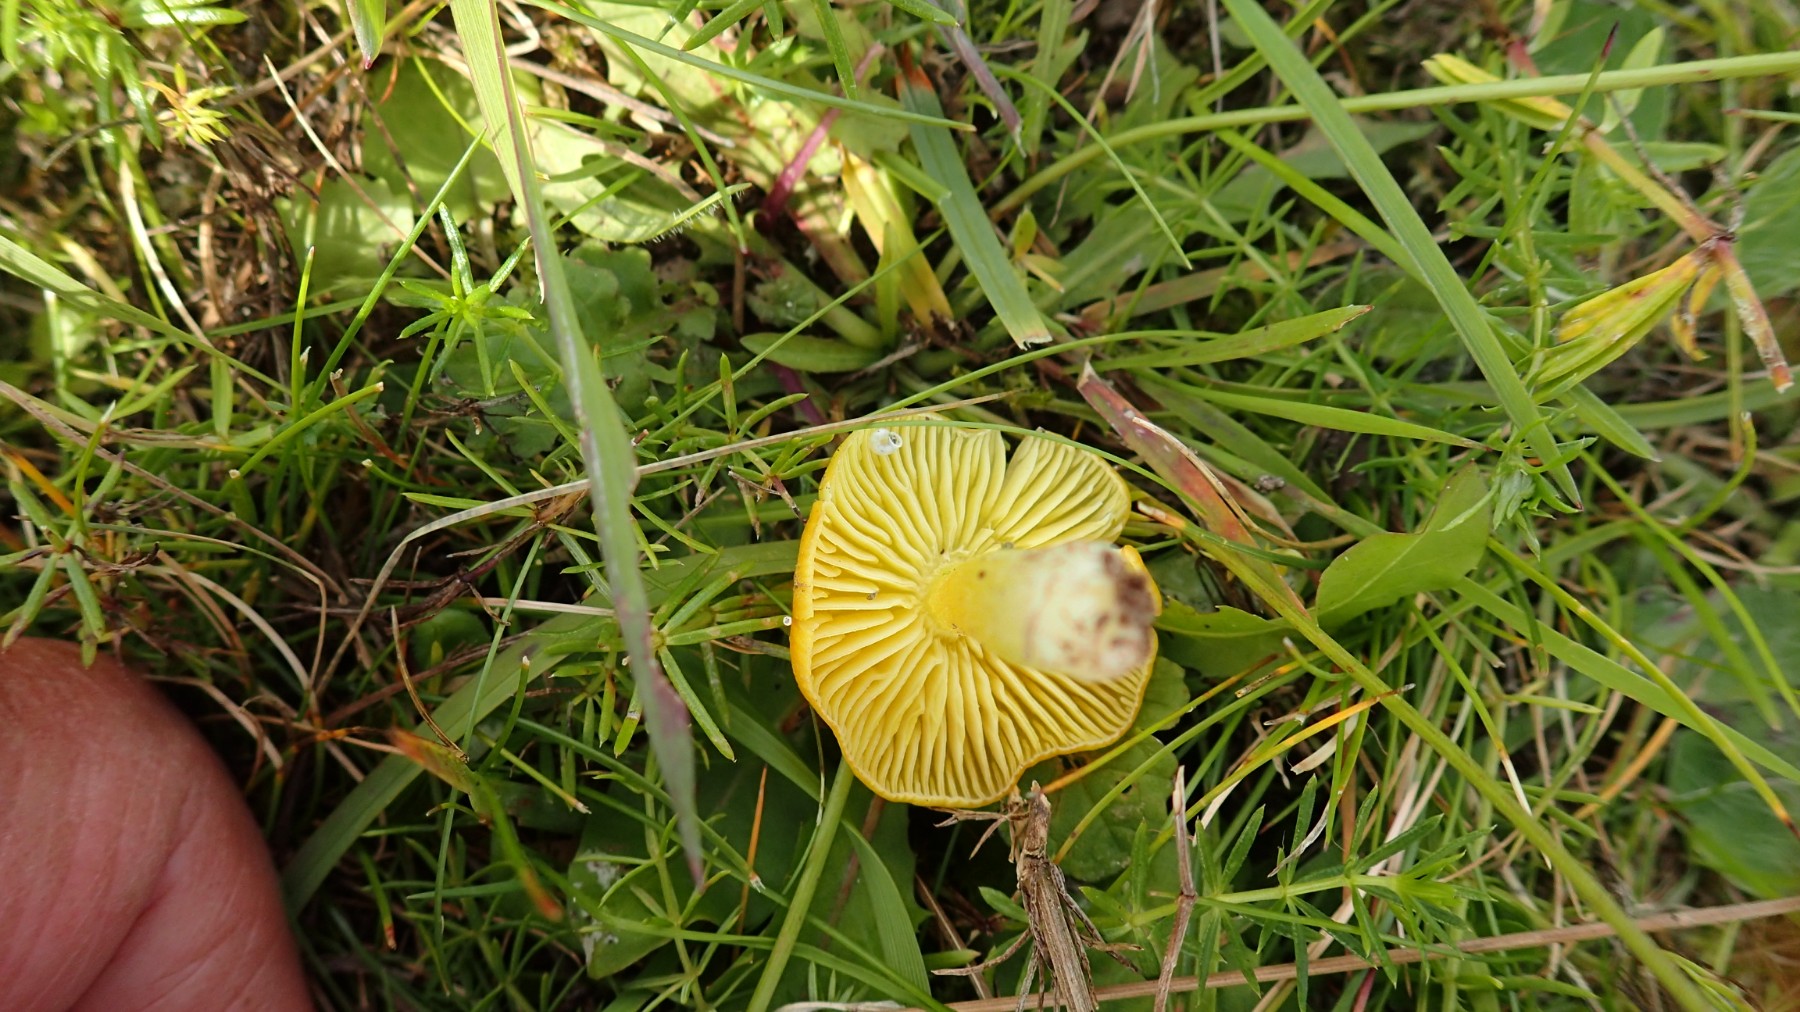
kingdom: Fungi
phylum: Basidiomycota
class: Agaricomycetes
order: Agaricales
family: Hygrophoraceae
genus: Hygrocybe
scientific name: Hygrocybe ceracea
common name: voksgul vokshat
